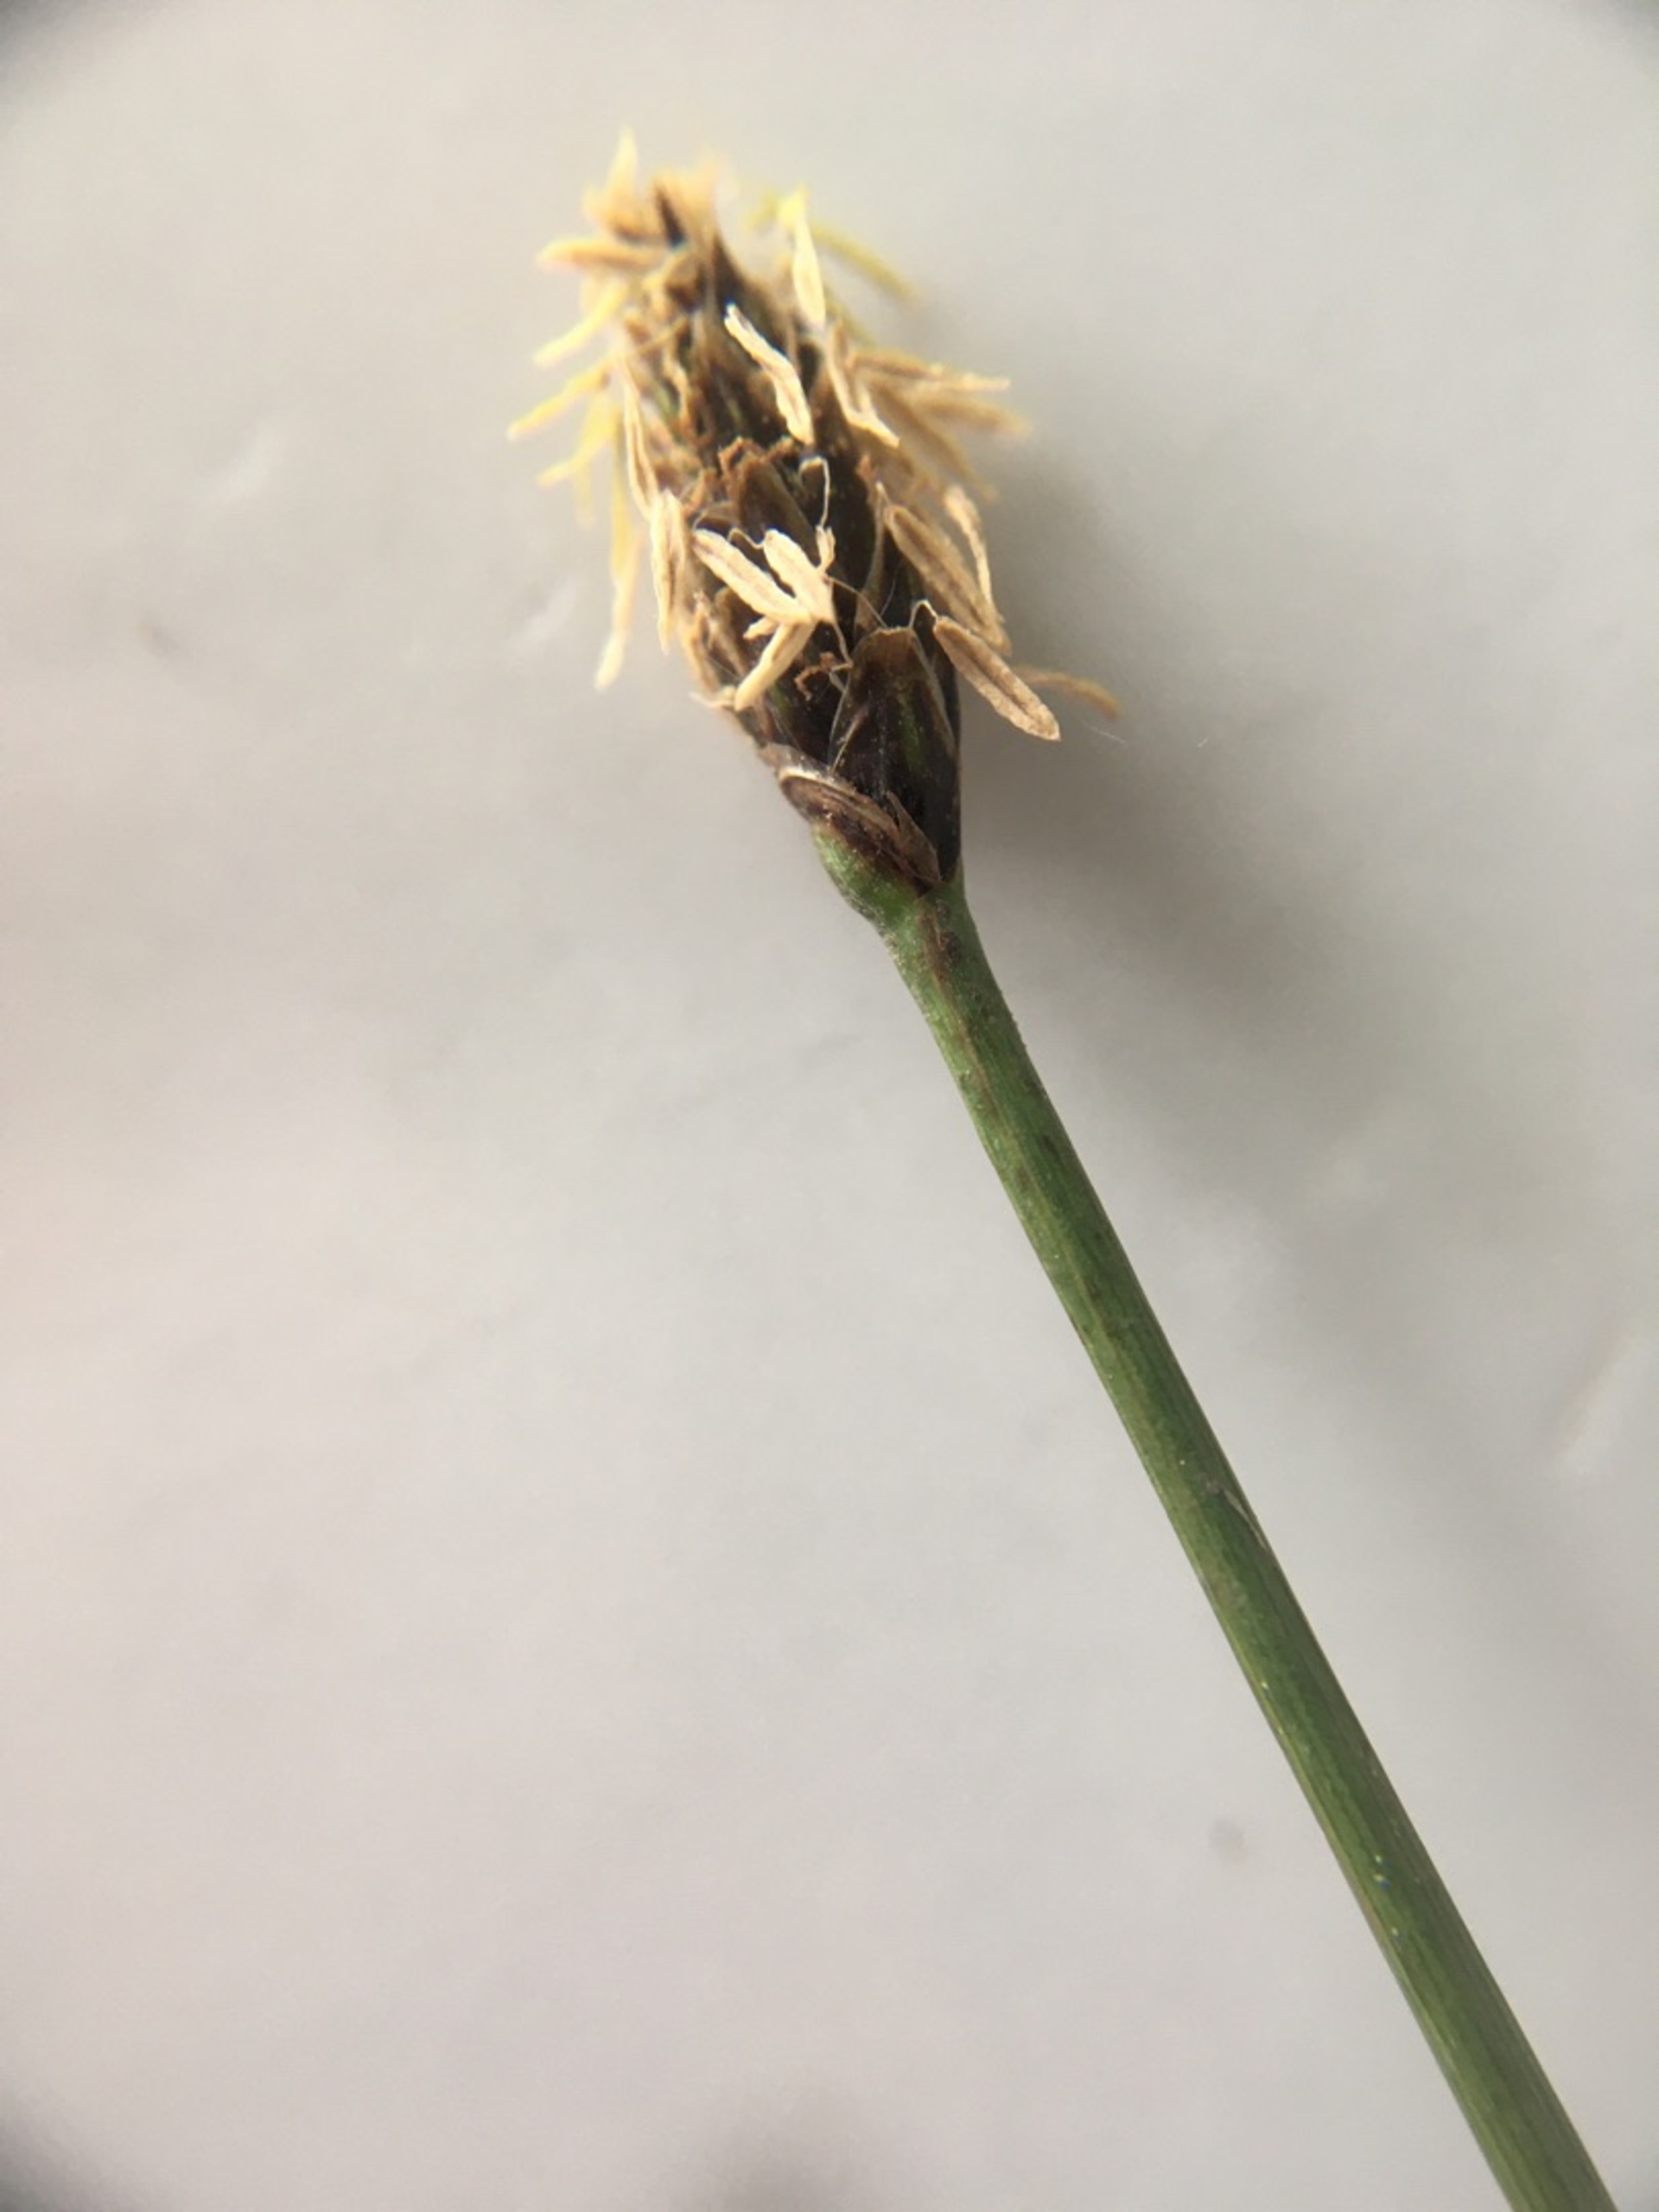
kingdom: Plantae
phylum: Tracheophyta
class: Liliopsida
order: Poales
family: Cyperaceae
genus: Eleocharis
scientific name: Eleocharis palustris
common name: Almindelig sumpstrå
